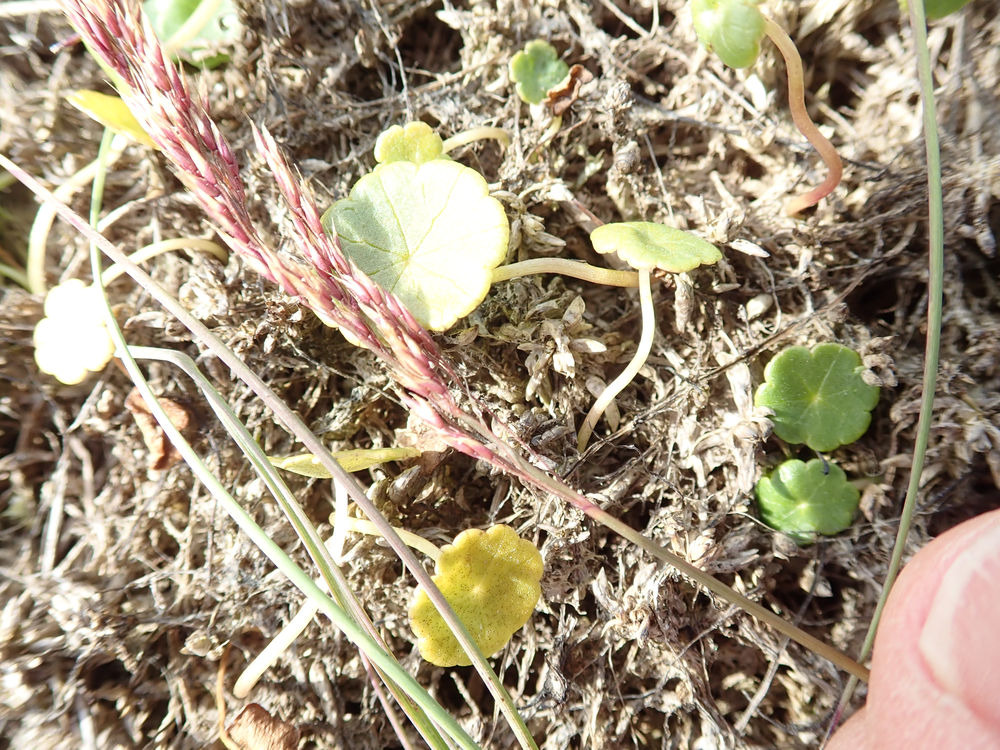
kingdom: Plantae
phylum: Tracheophyta
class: Liliopsida
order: Poales
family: Poaceae
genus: Deschampsia
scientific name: Deschampsia setacea
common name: Fin bunke
